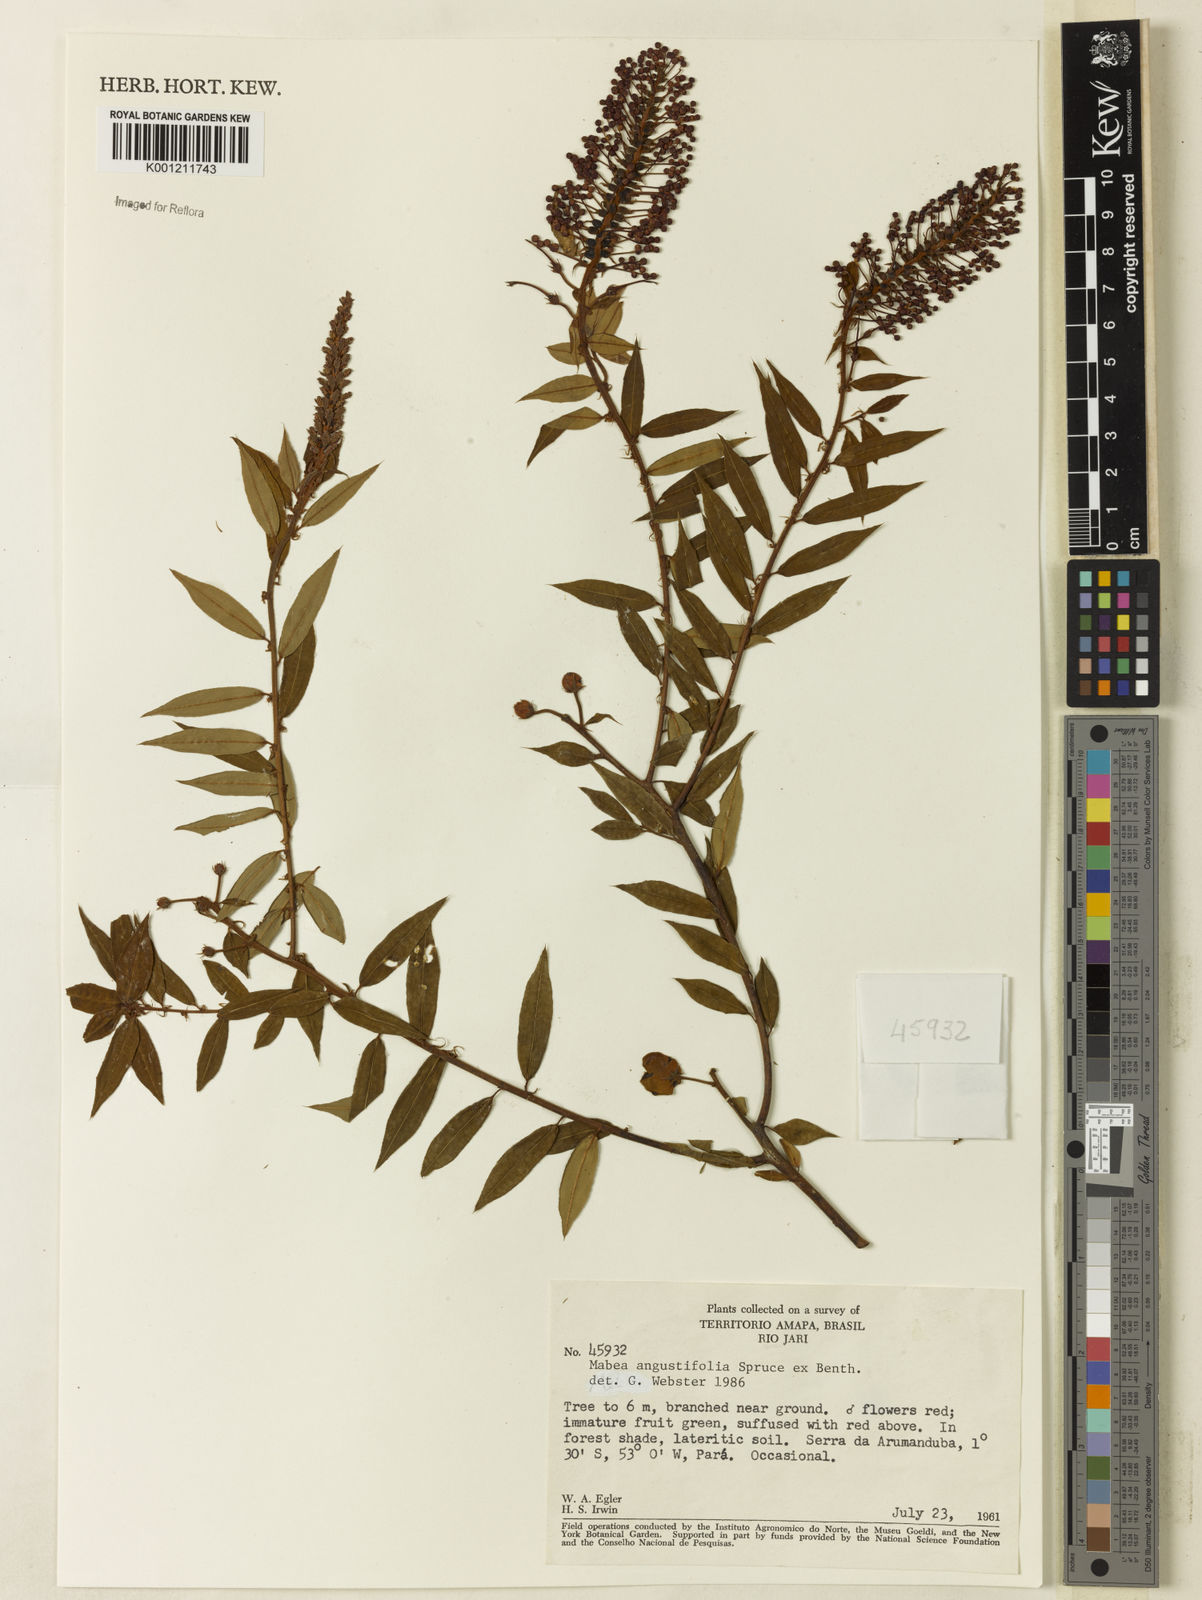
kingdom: Plantae
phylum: Tracheophyta
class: Magnoliopsida
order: Malpighiales
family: Euphorbiaceae
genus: Mabea
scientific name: Mabea angustifolia
